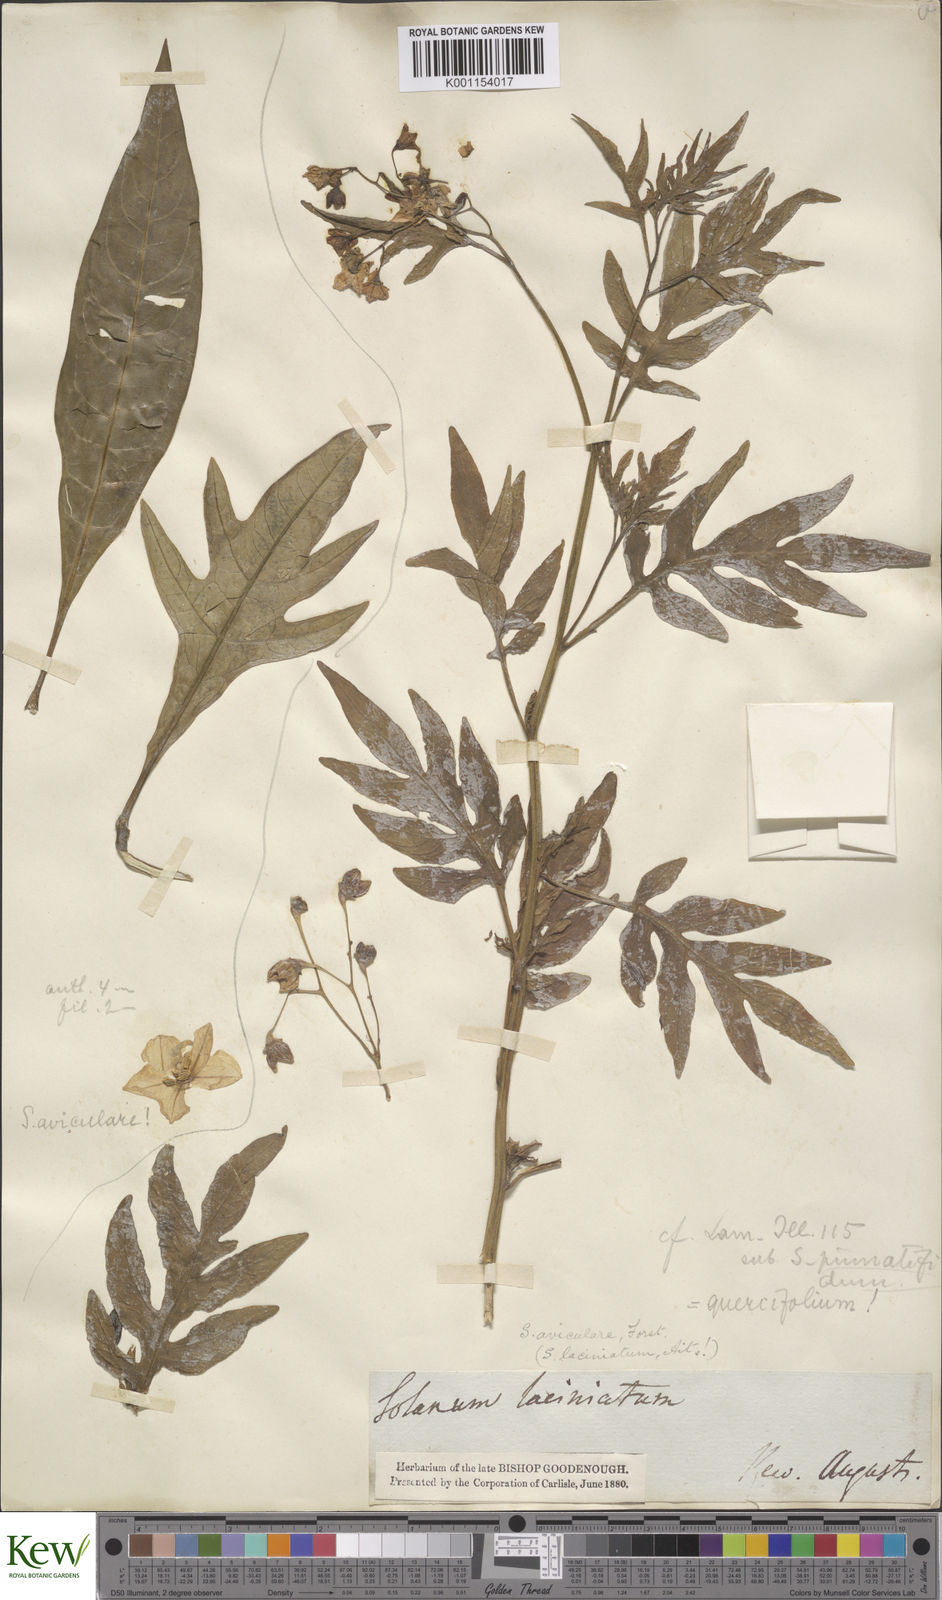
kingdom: Plantae
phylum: Tracheophyta
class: Magnoliopsida
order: Solanales
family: Solanaceae
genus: Solanum
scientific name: Solanum laciniatum
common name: Kangaroo-apple
